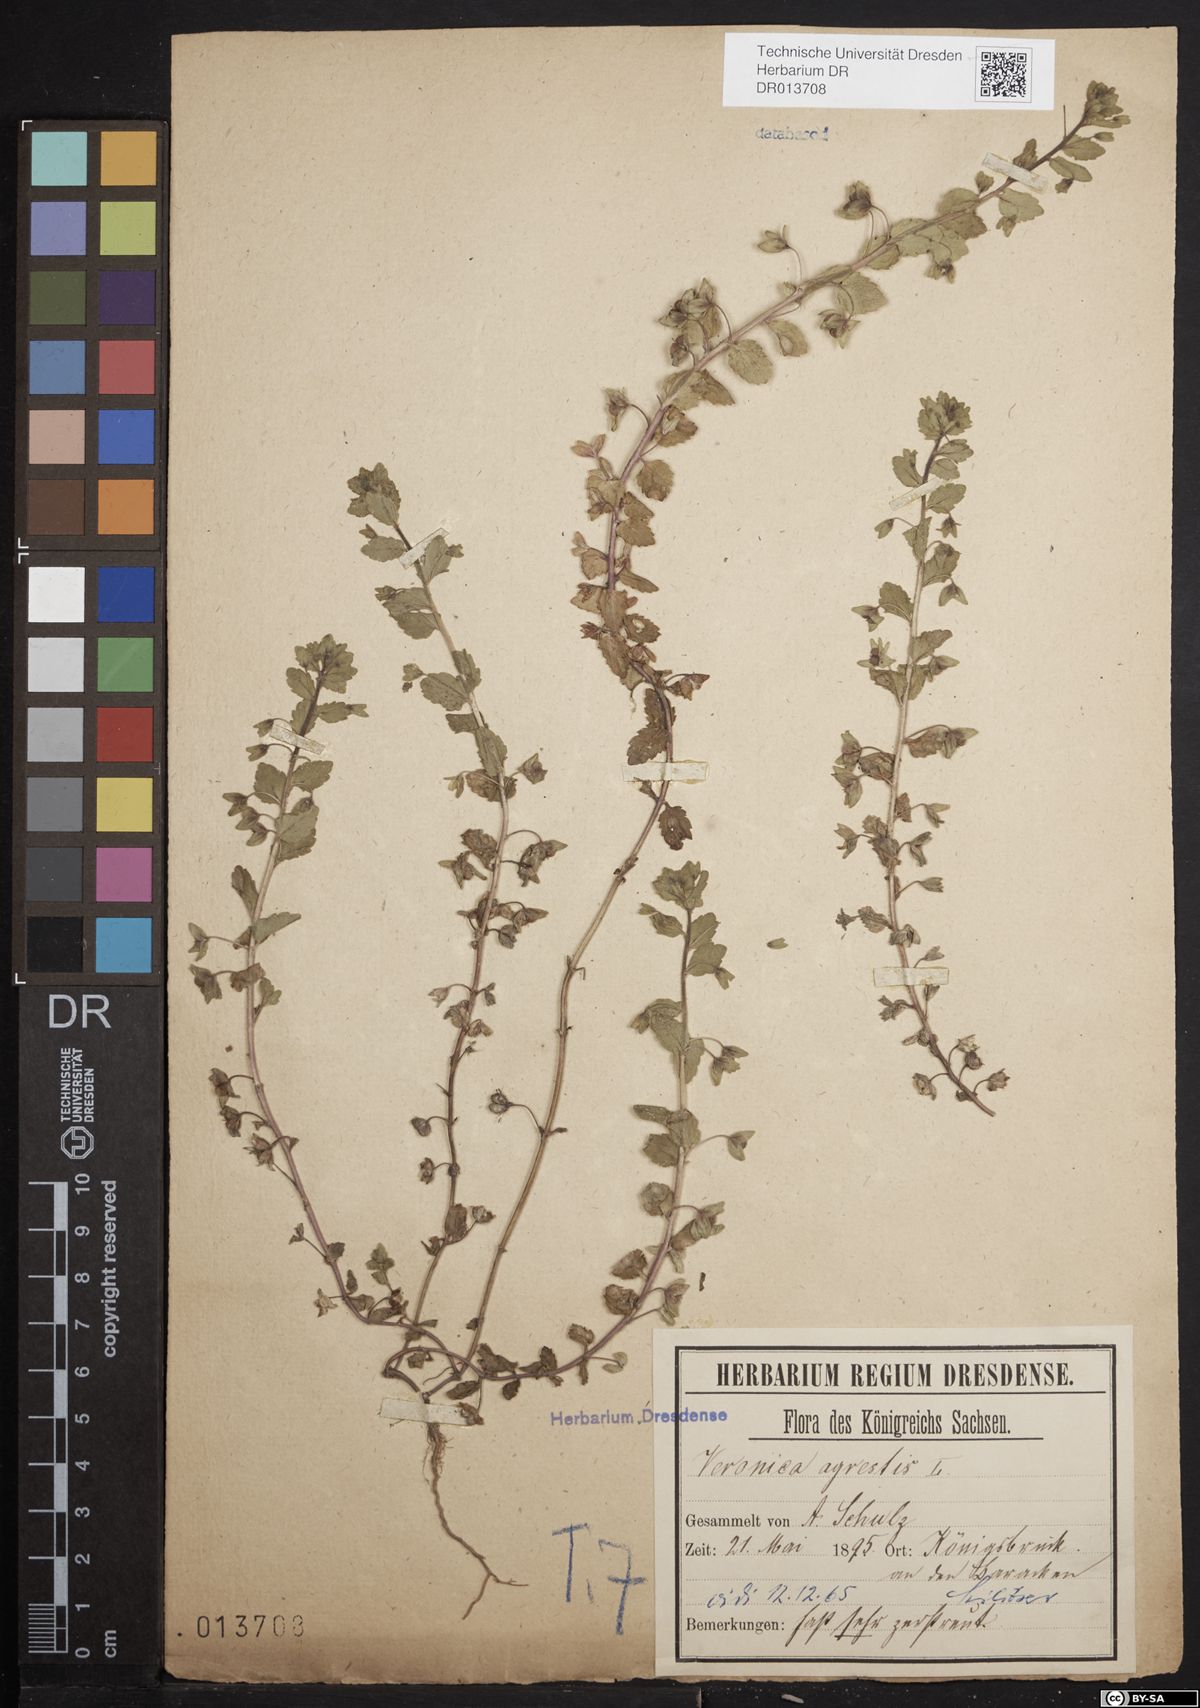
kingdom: Plantae
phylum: Tracheophyta
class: Magnoliopsida
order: Lamiales
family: Plantaginaceae
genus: Veronica
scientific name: Veronica agrestis
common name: Green field-speedwell
